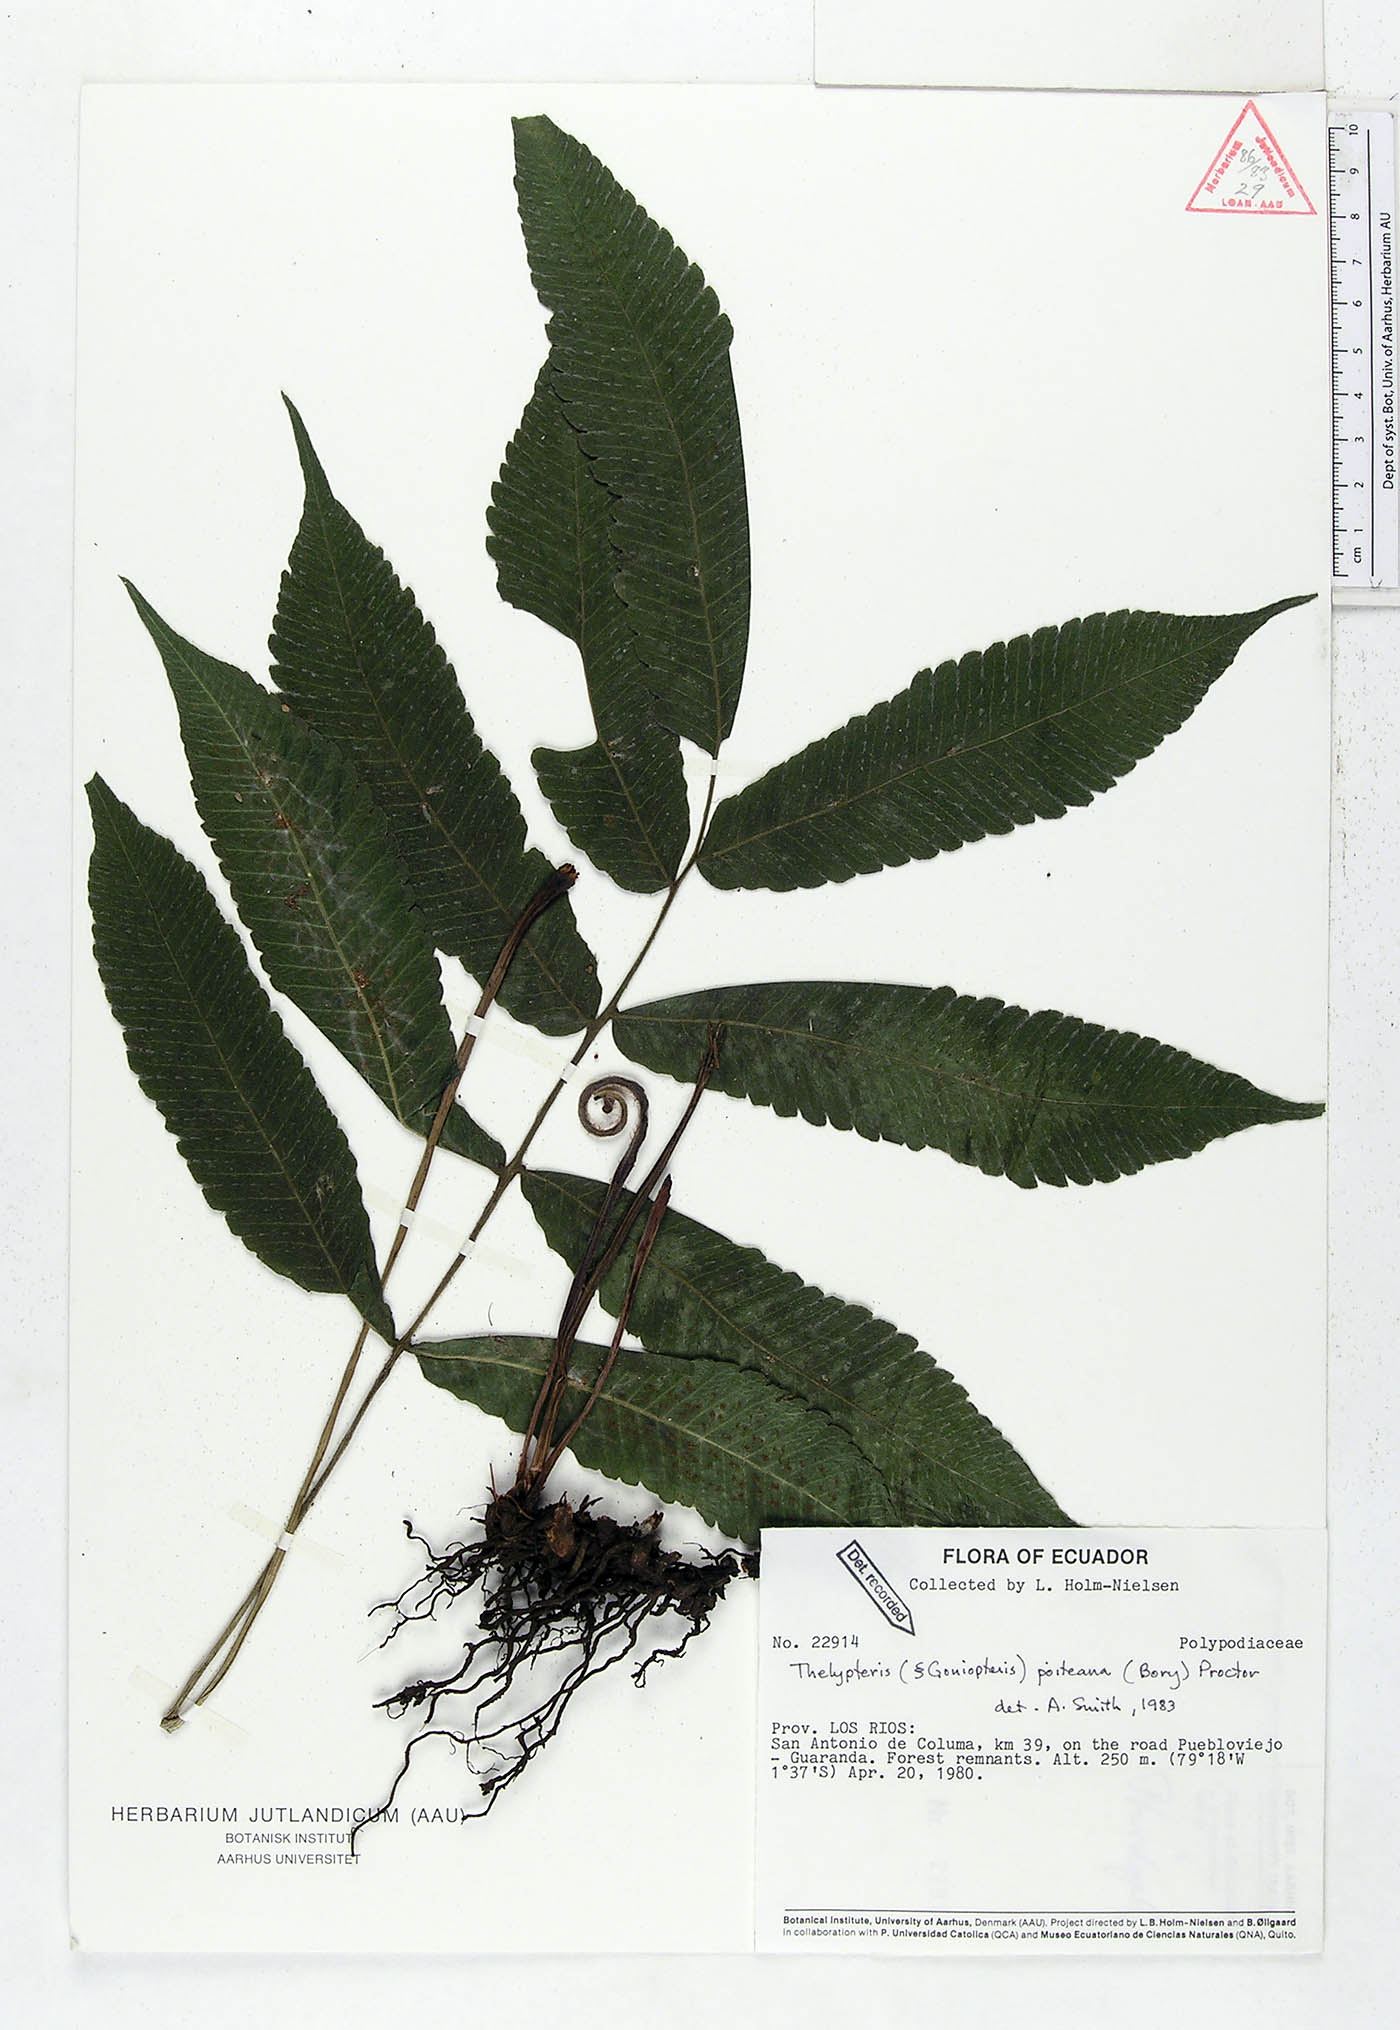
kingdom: Plantae
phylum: Tracheophyta
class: Polypodiopsida
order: Polypodiales
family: Thelypteridaceae
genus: Goniopteris
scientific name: Goniopteris poiteana
